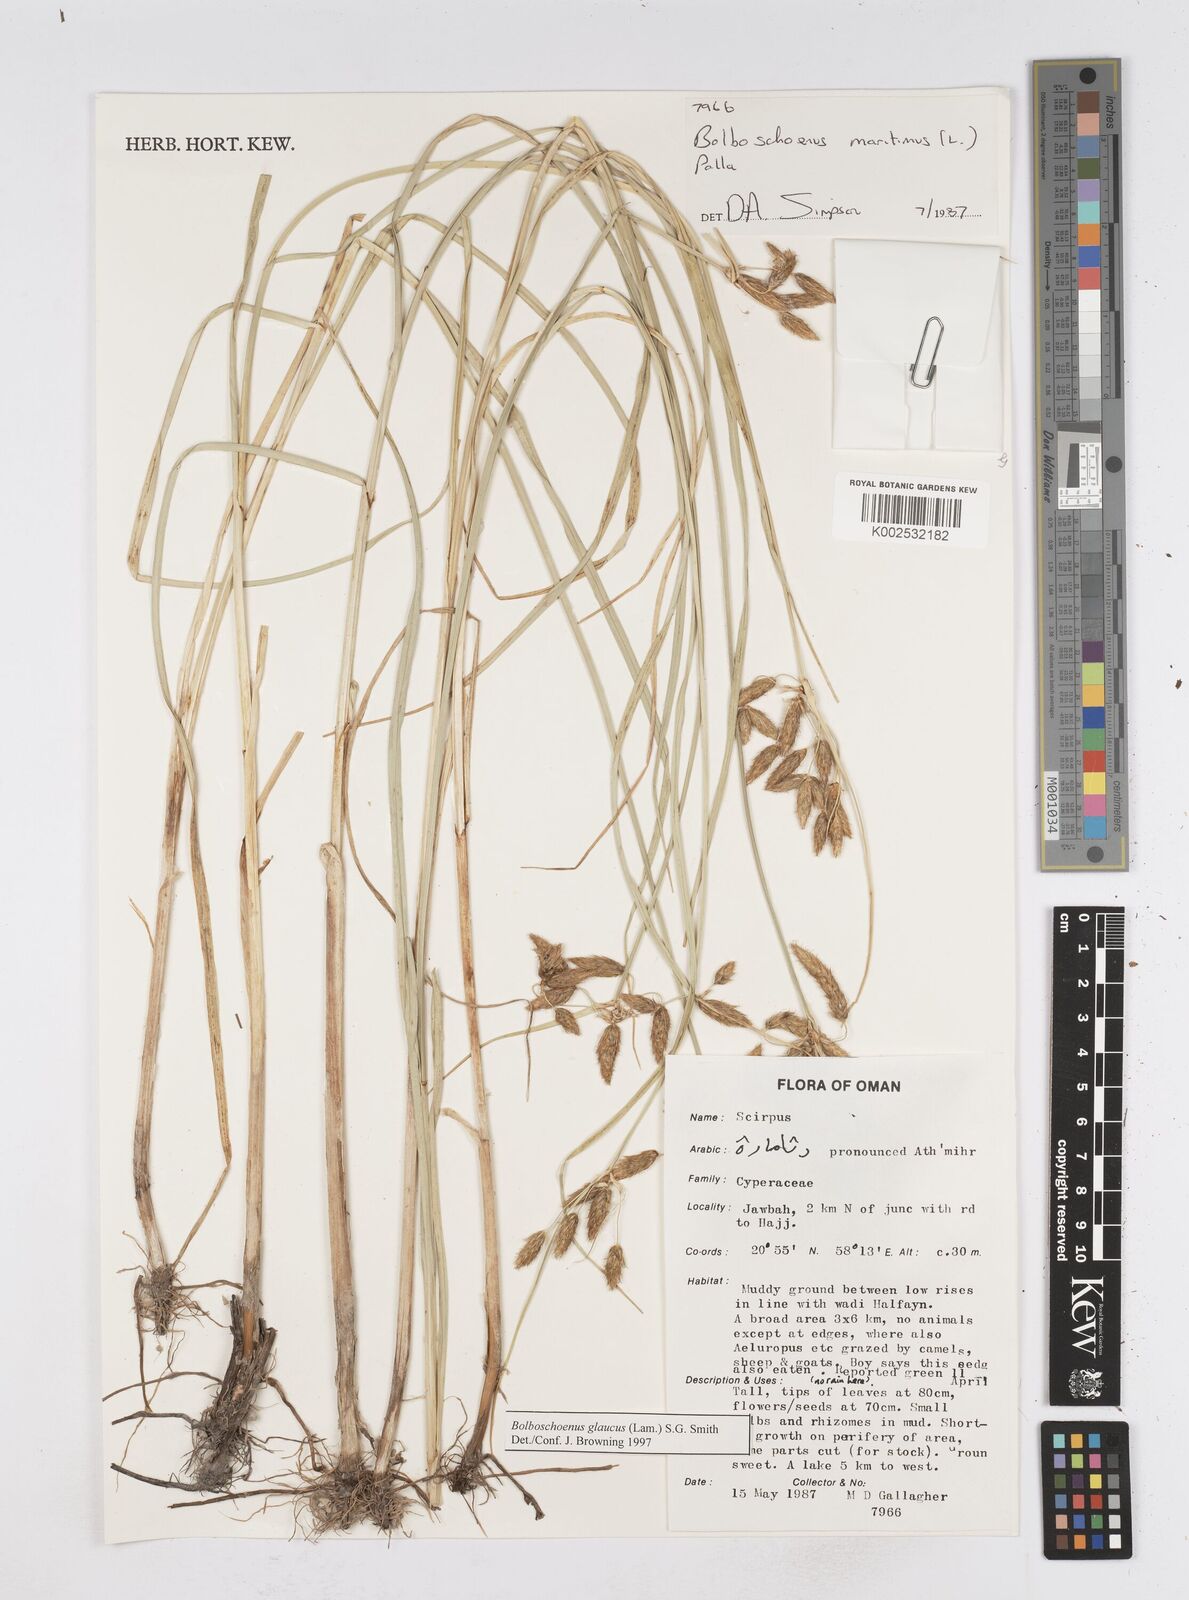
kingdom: Plantae
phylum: Tracheophyta
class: Liliopsida
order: Poales
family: Cyperaceae
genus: Bolboschoenus
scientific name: Bolboschoenus maritimus
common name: Sea club-rush
